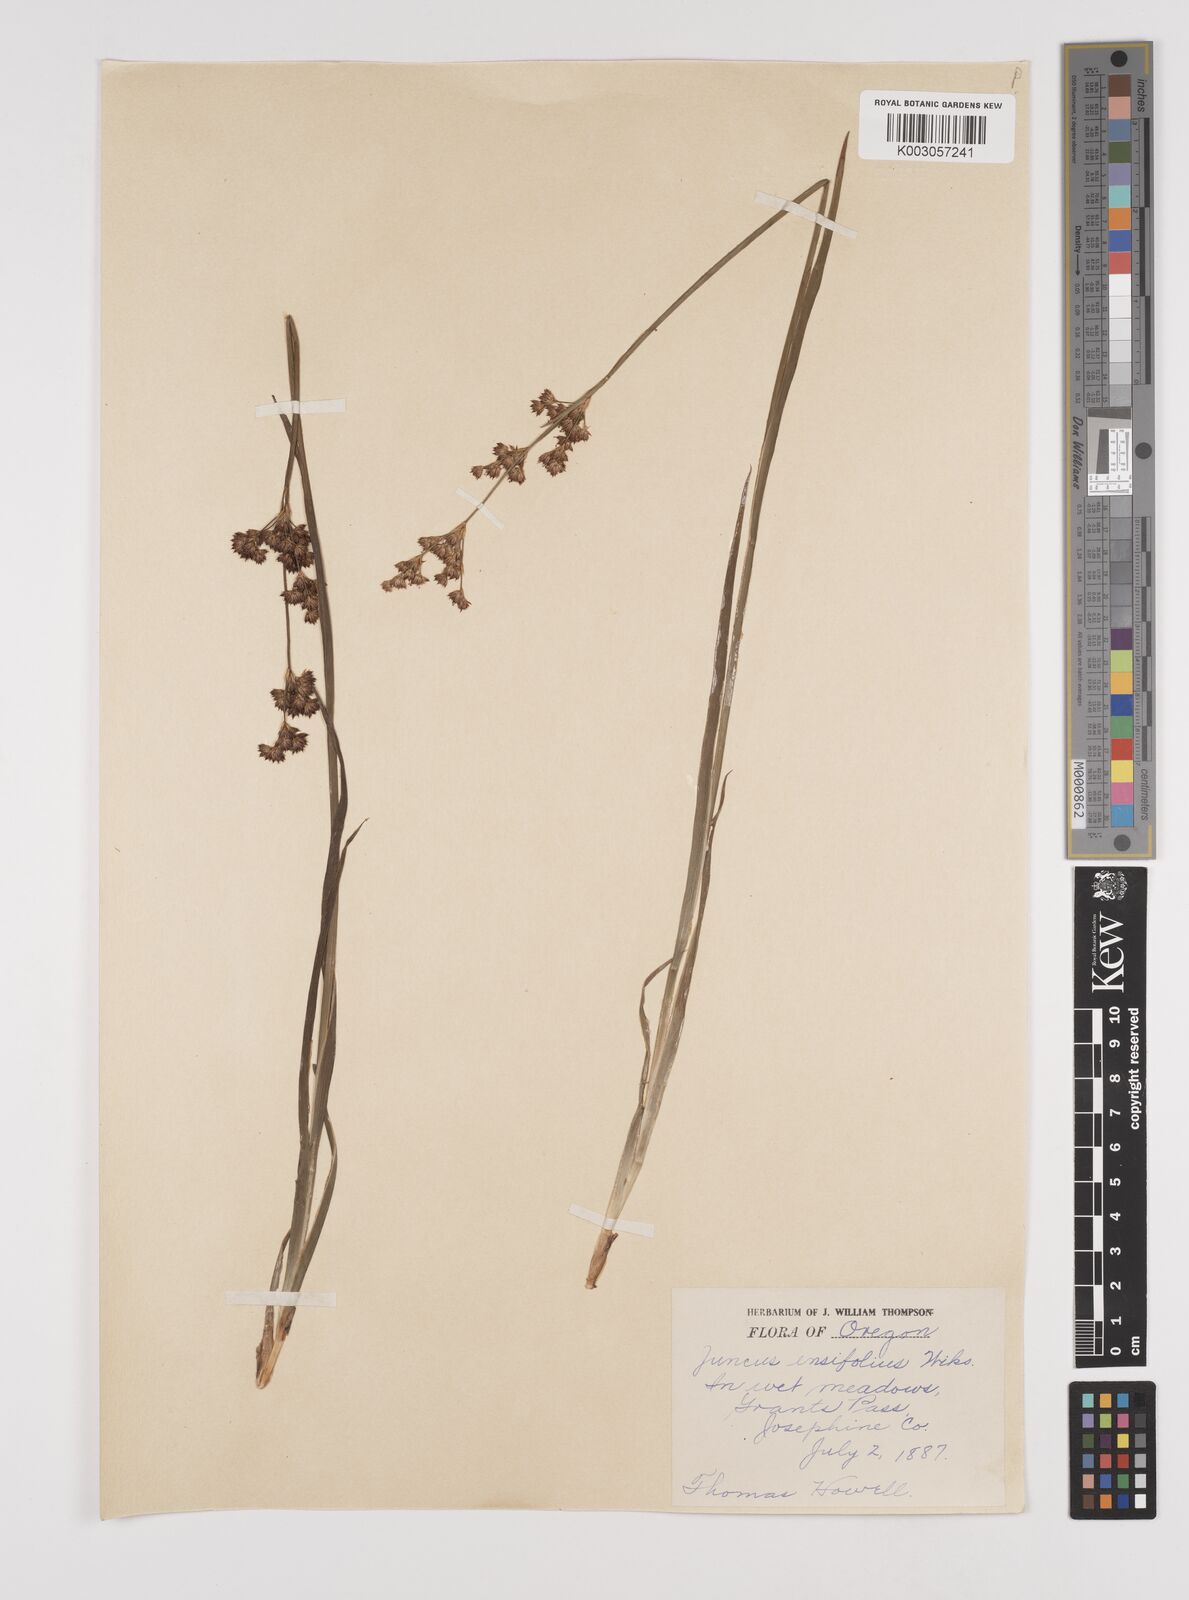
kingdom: Plantae
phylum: Tracheophyta
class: Liliopsida
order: Poales
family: Juncaceae
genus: Juncus
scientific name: Juncus ensifolius
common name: Sword-leaved rush
